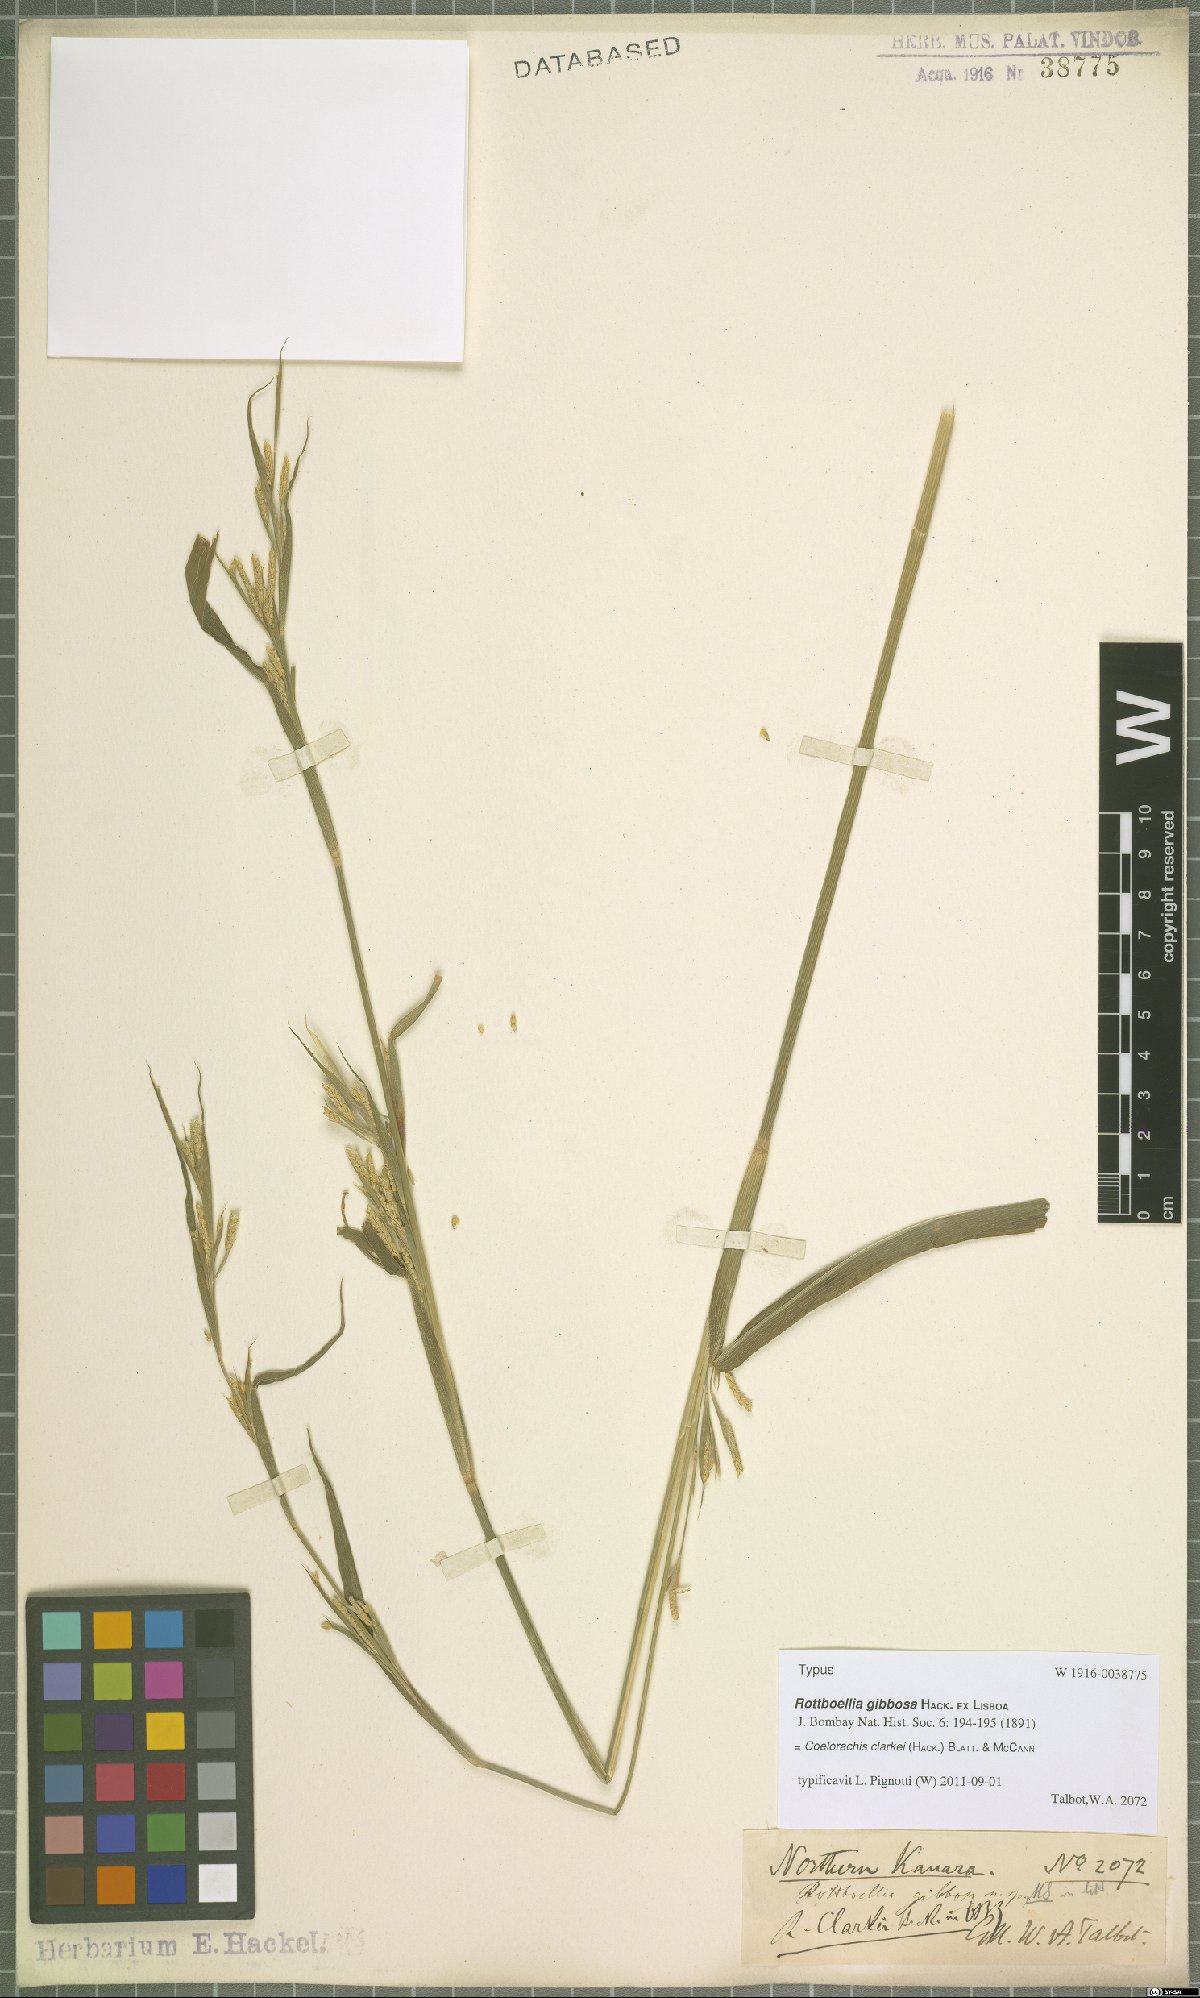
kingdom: Plantae
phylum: Tracheophyta
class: Liliopsida
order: Poales
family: Poaceae
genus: Rottboellia
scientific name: Rottboellia clarkei
